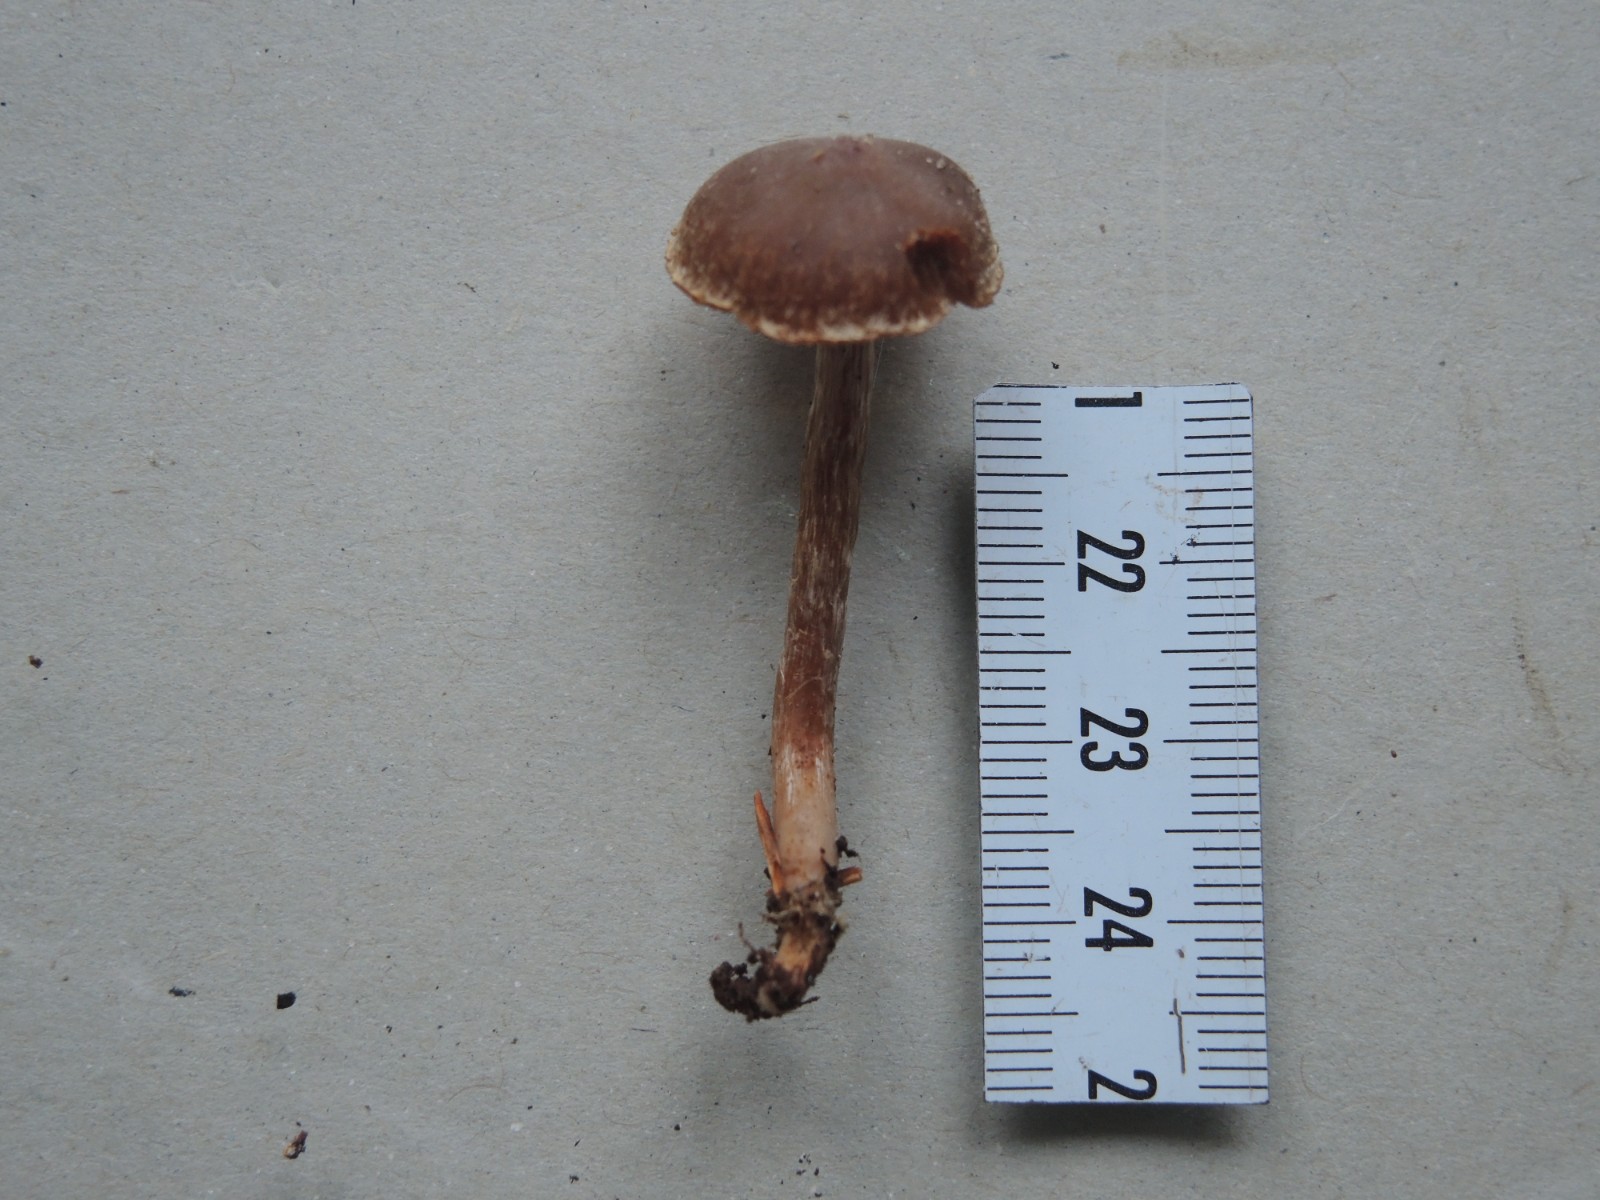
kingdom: Fungi
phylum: Basidiomycota
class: Agaricomycetes
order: Agaricales
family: Cortinariaceae
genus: Cortinarius
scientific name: Cortinarius
